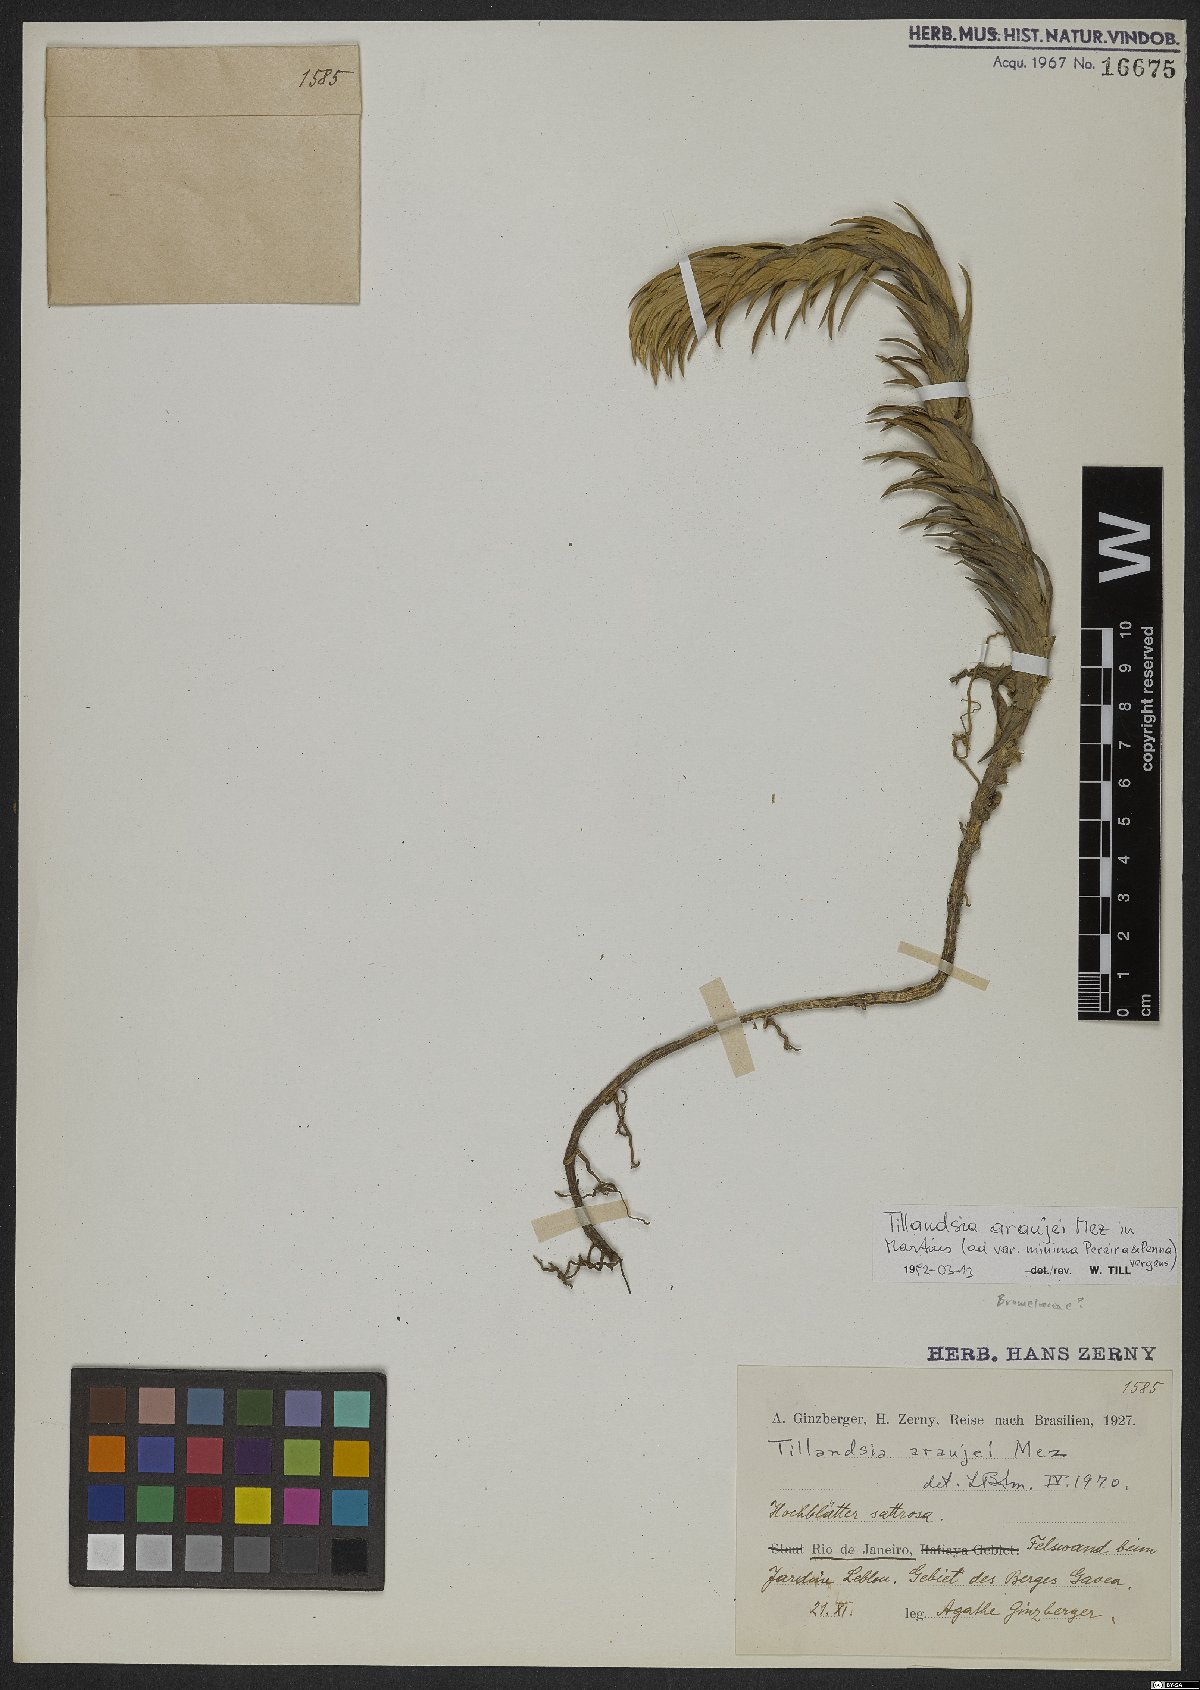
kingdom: Plantae
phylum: Tracheophyta
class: Liliopsida
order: Poales
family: Bromeliaceae
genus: Tillandsia
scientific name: Tillandsia araujei
